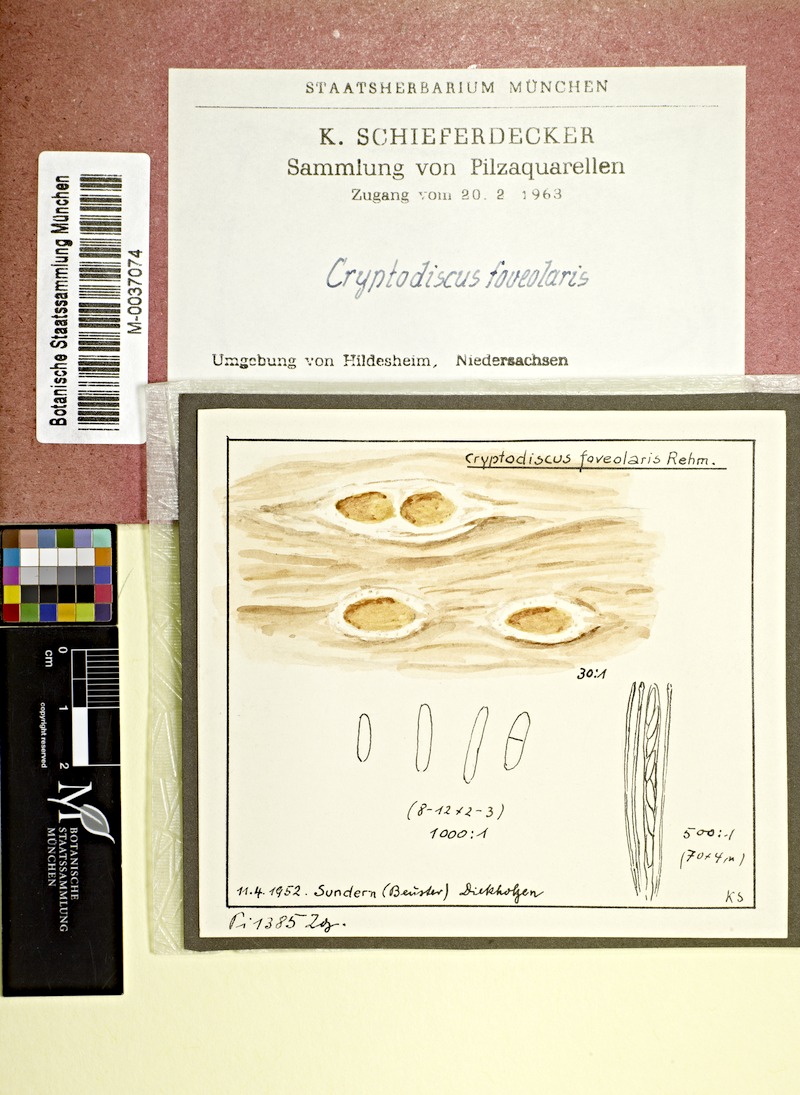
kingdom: Fungi
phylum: Ascomycota
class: Lecanoromycetes
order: Ostropales
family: Stictidaceae
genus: Cryptodiscus
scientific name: Cryptodiscus foveolaris
